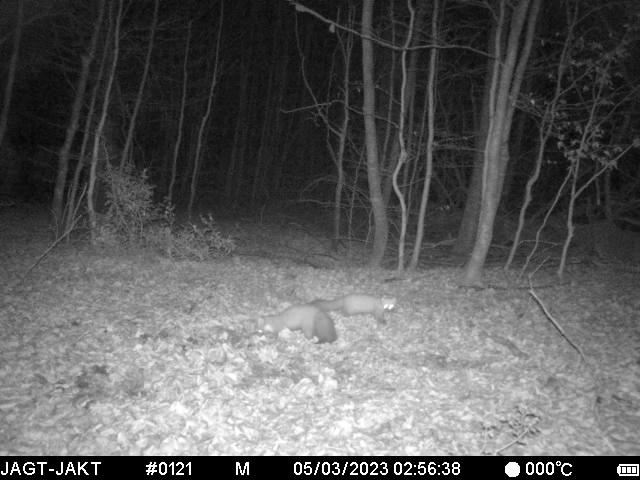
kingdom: Animalia
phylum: Chordata
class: Mammalia
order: Carnivora
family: Mustelidae
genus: Martes
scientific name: Martes martes
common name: Skovmår
